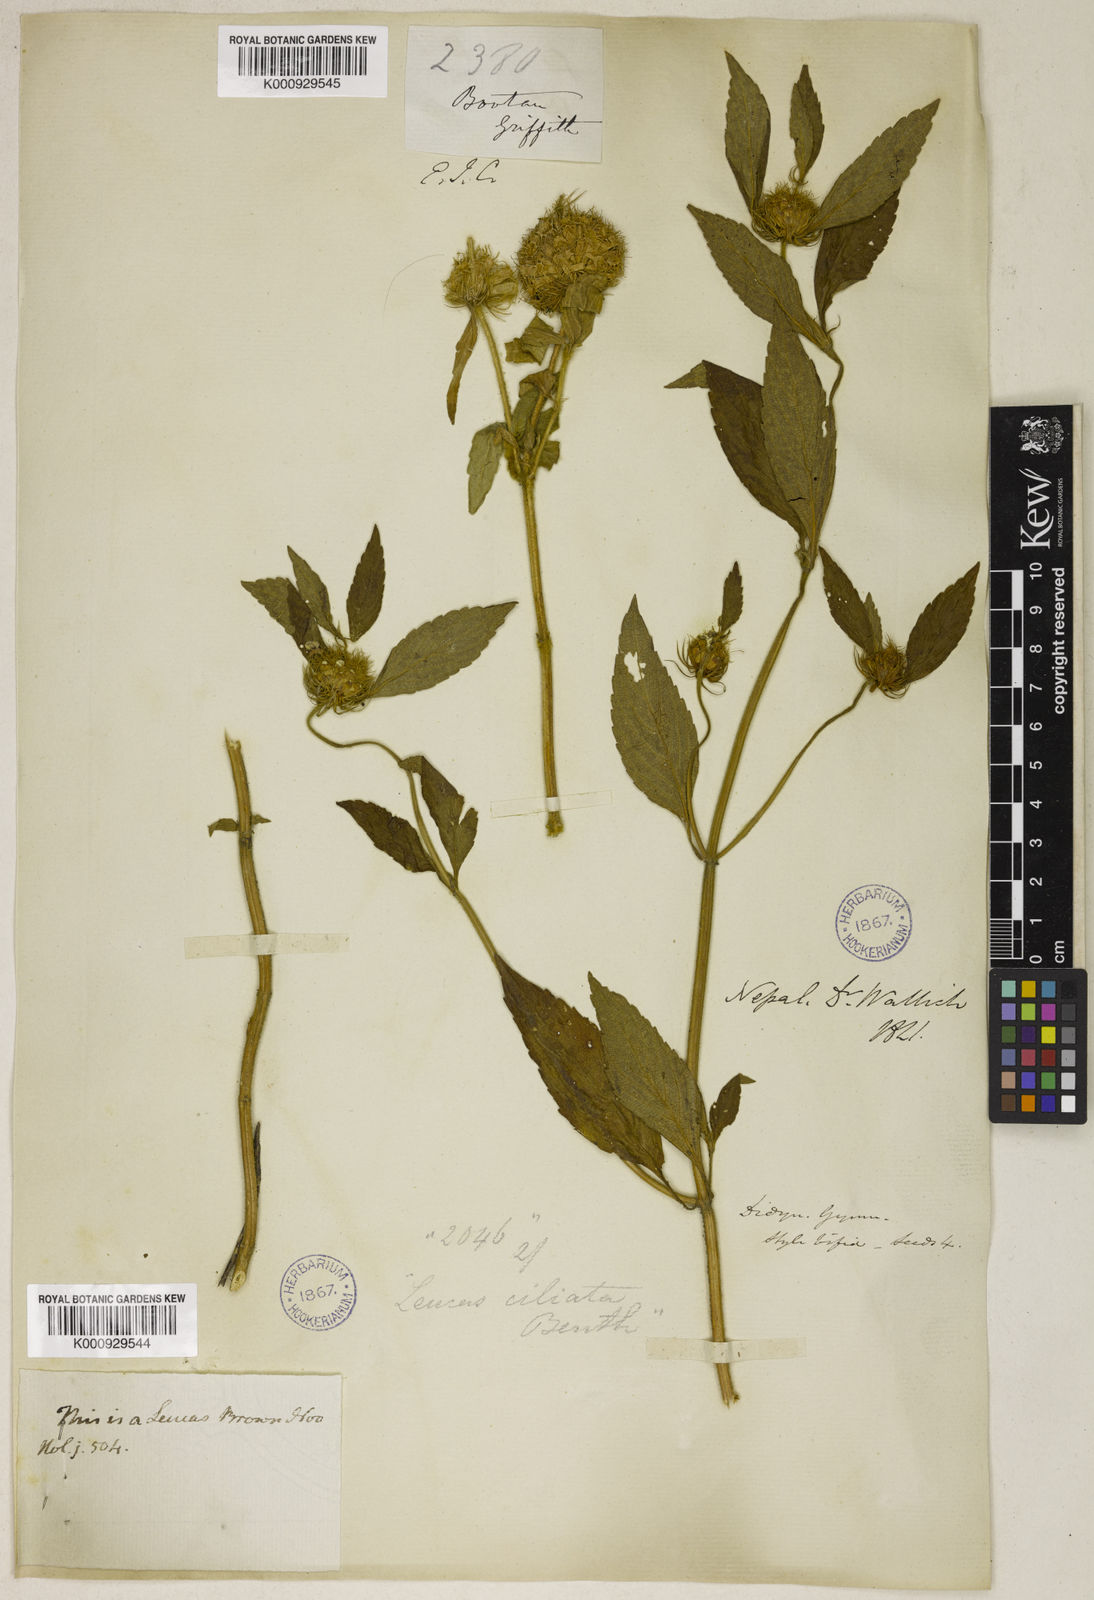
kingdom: Plantae
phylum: Tracheophyta
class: Magnoliopsida
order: Lamiales
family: Lamiaceae
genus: Leucas
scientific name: Leucas ciliata
